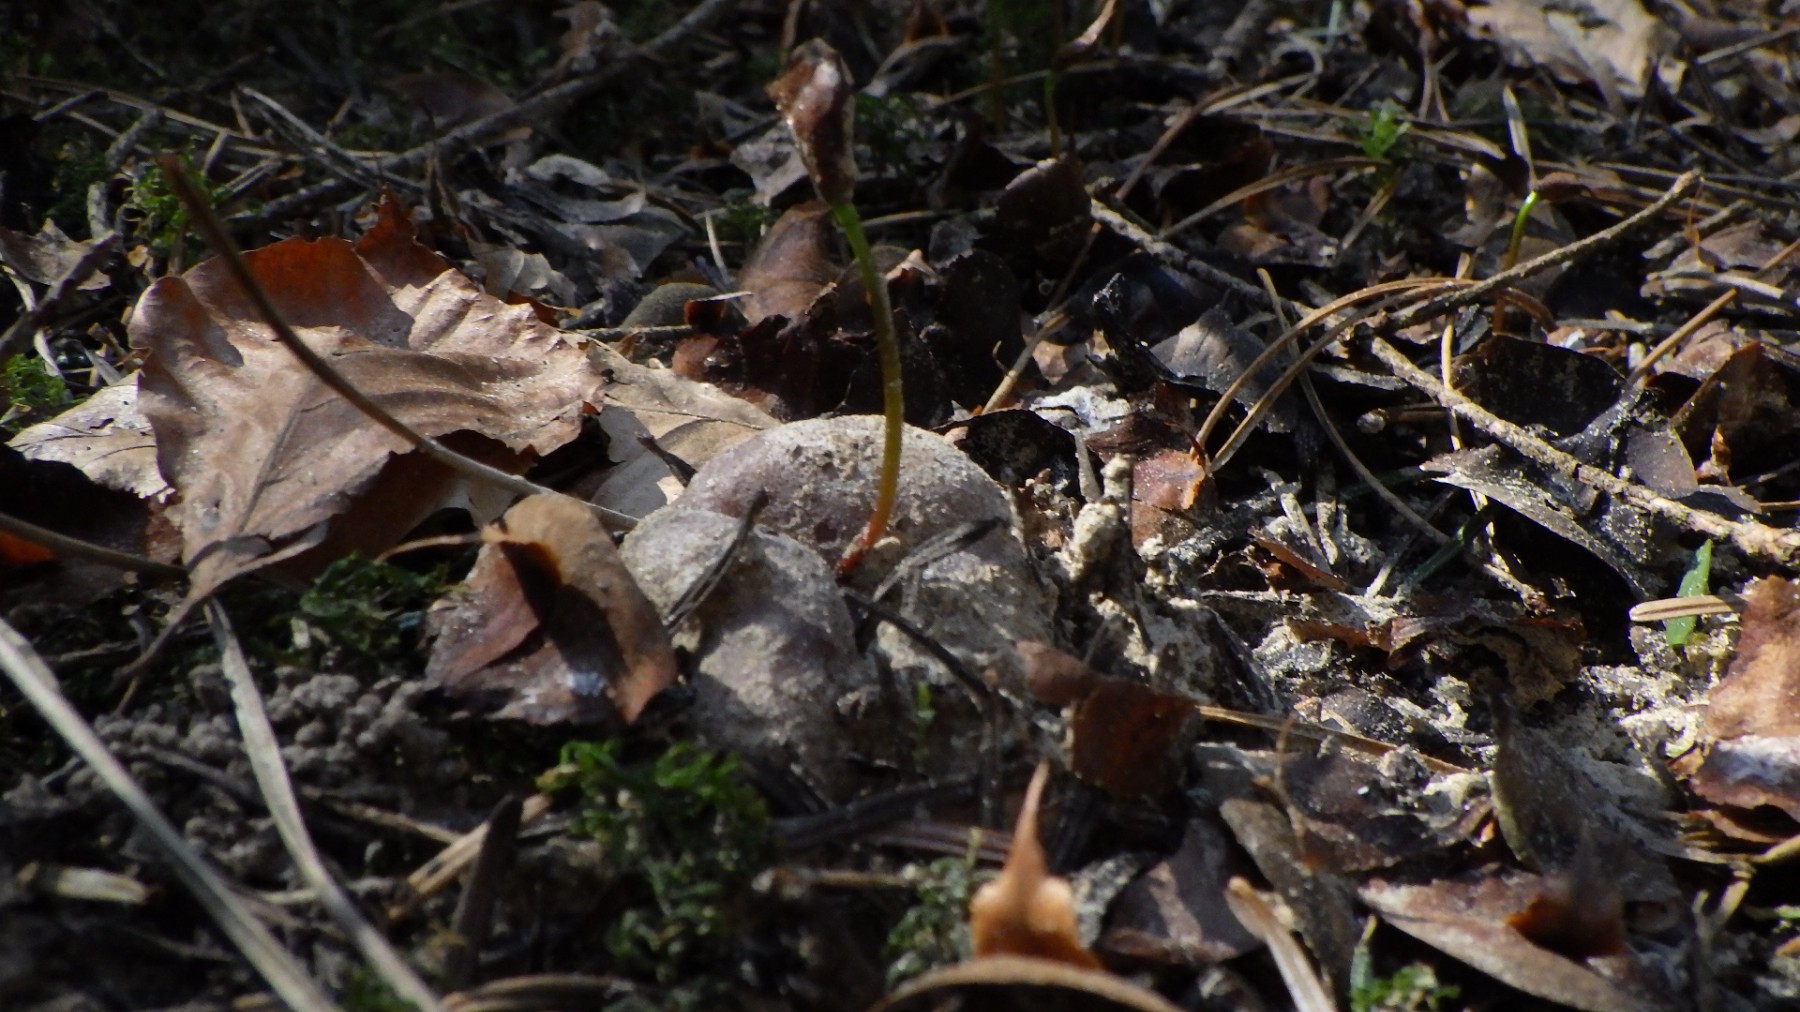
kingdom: Fungi
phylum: Ascomycota
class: Pezizomycetes
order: Pezizales
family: Pezizaceae
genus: Sarcosphaera
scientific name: Sarcosphaera coronaria
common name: stjernebæger
